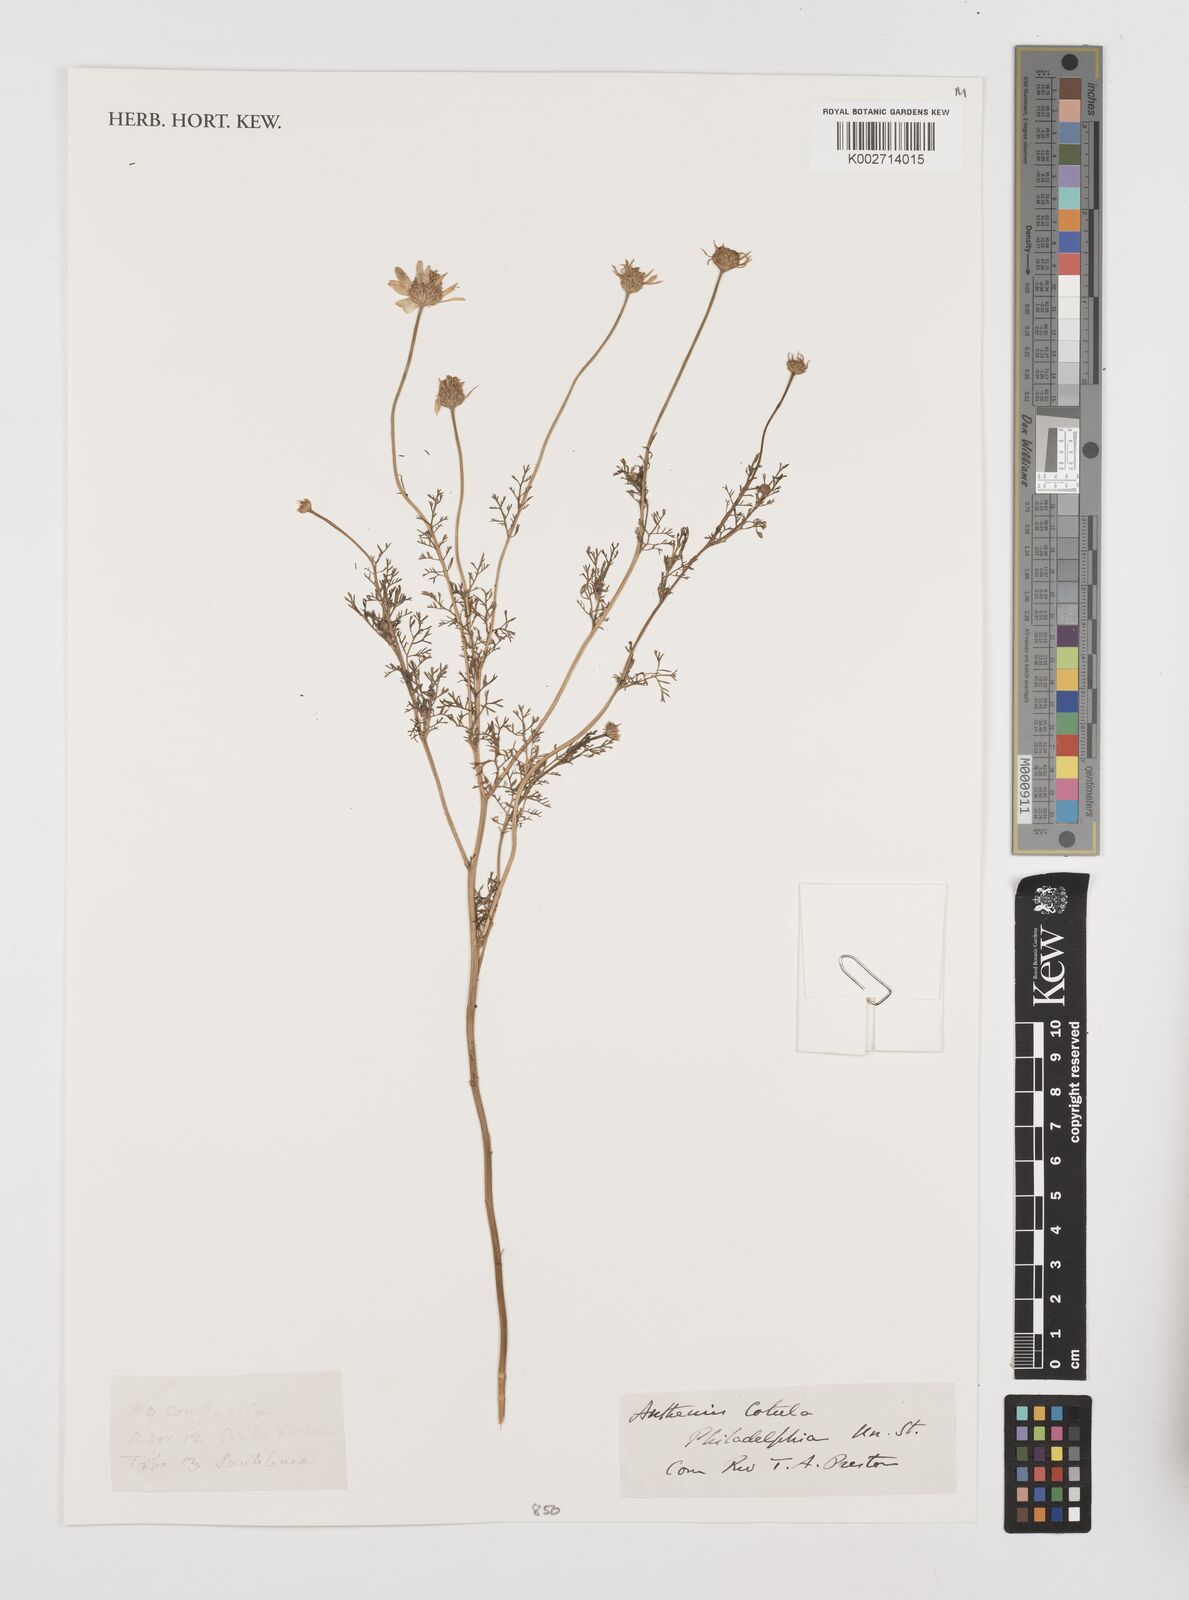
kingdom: Plantae
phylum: Tracheophyta
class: Magnoliopsida
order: Asterales
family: Asteraceae
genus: Anthemis
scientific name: Anthemis cotula
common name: Stinking chamomile
